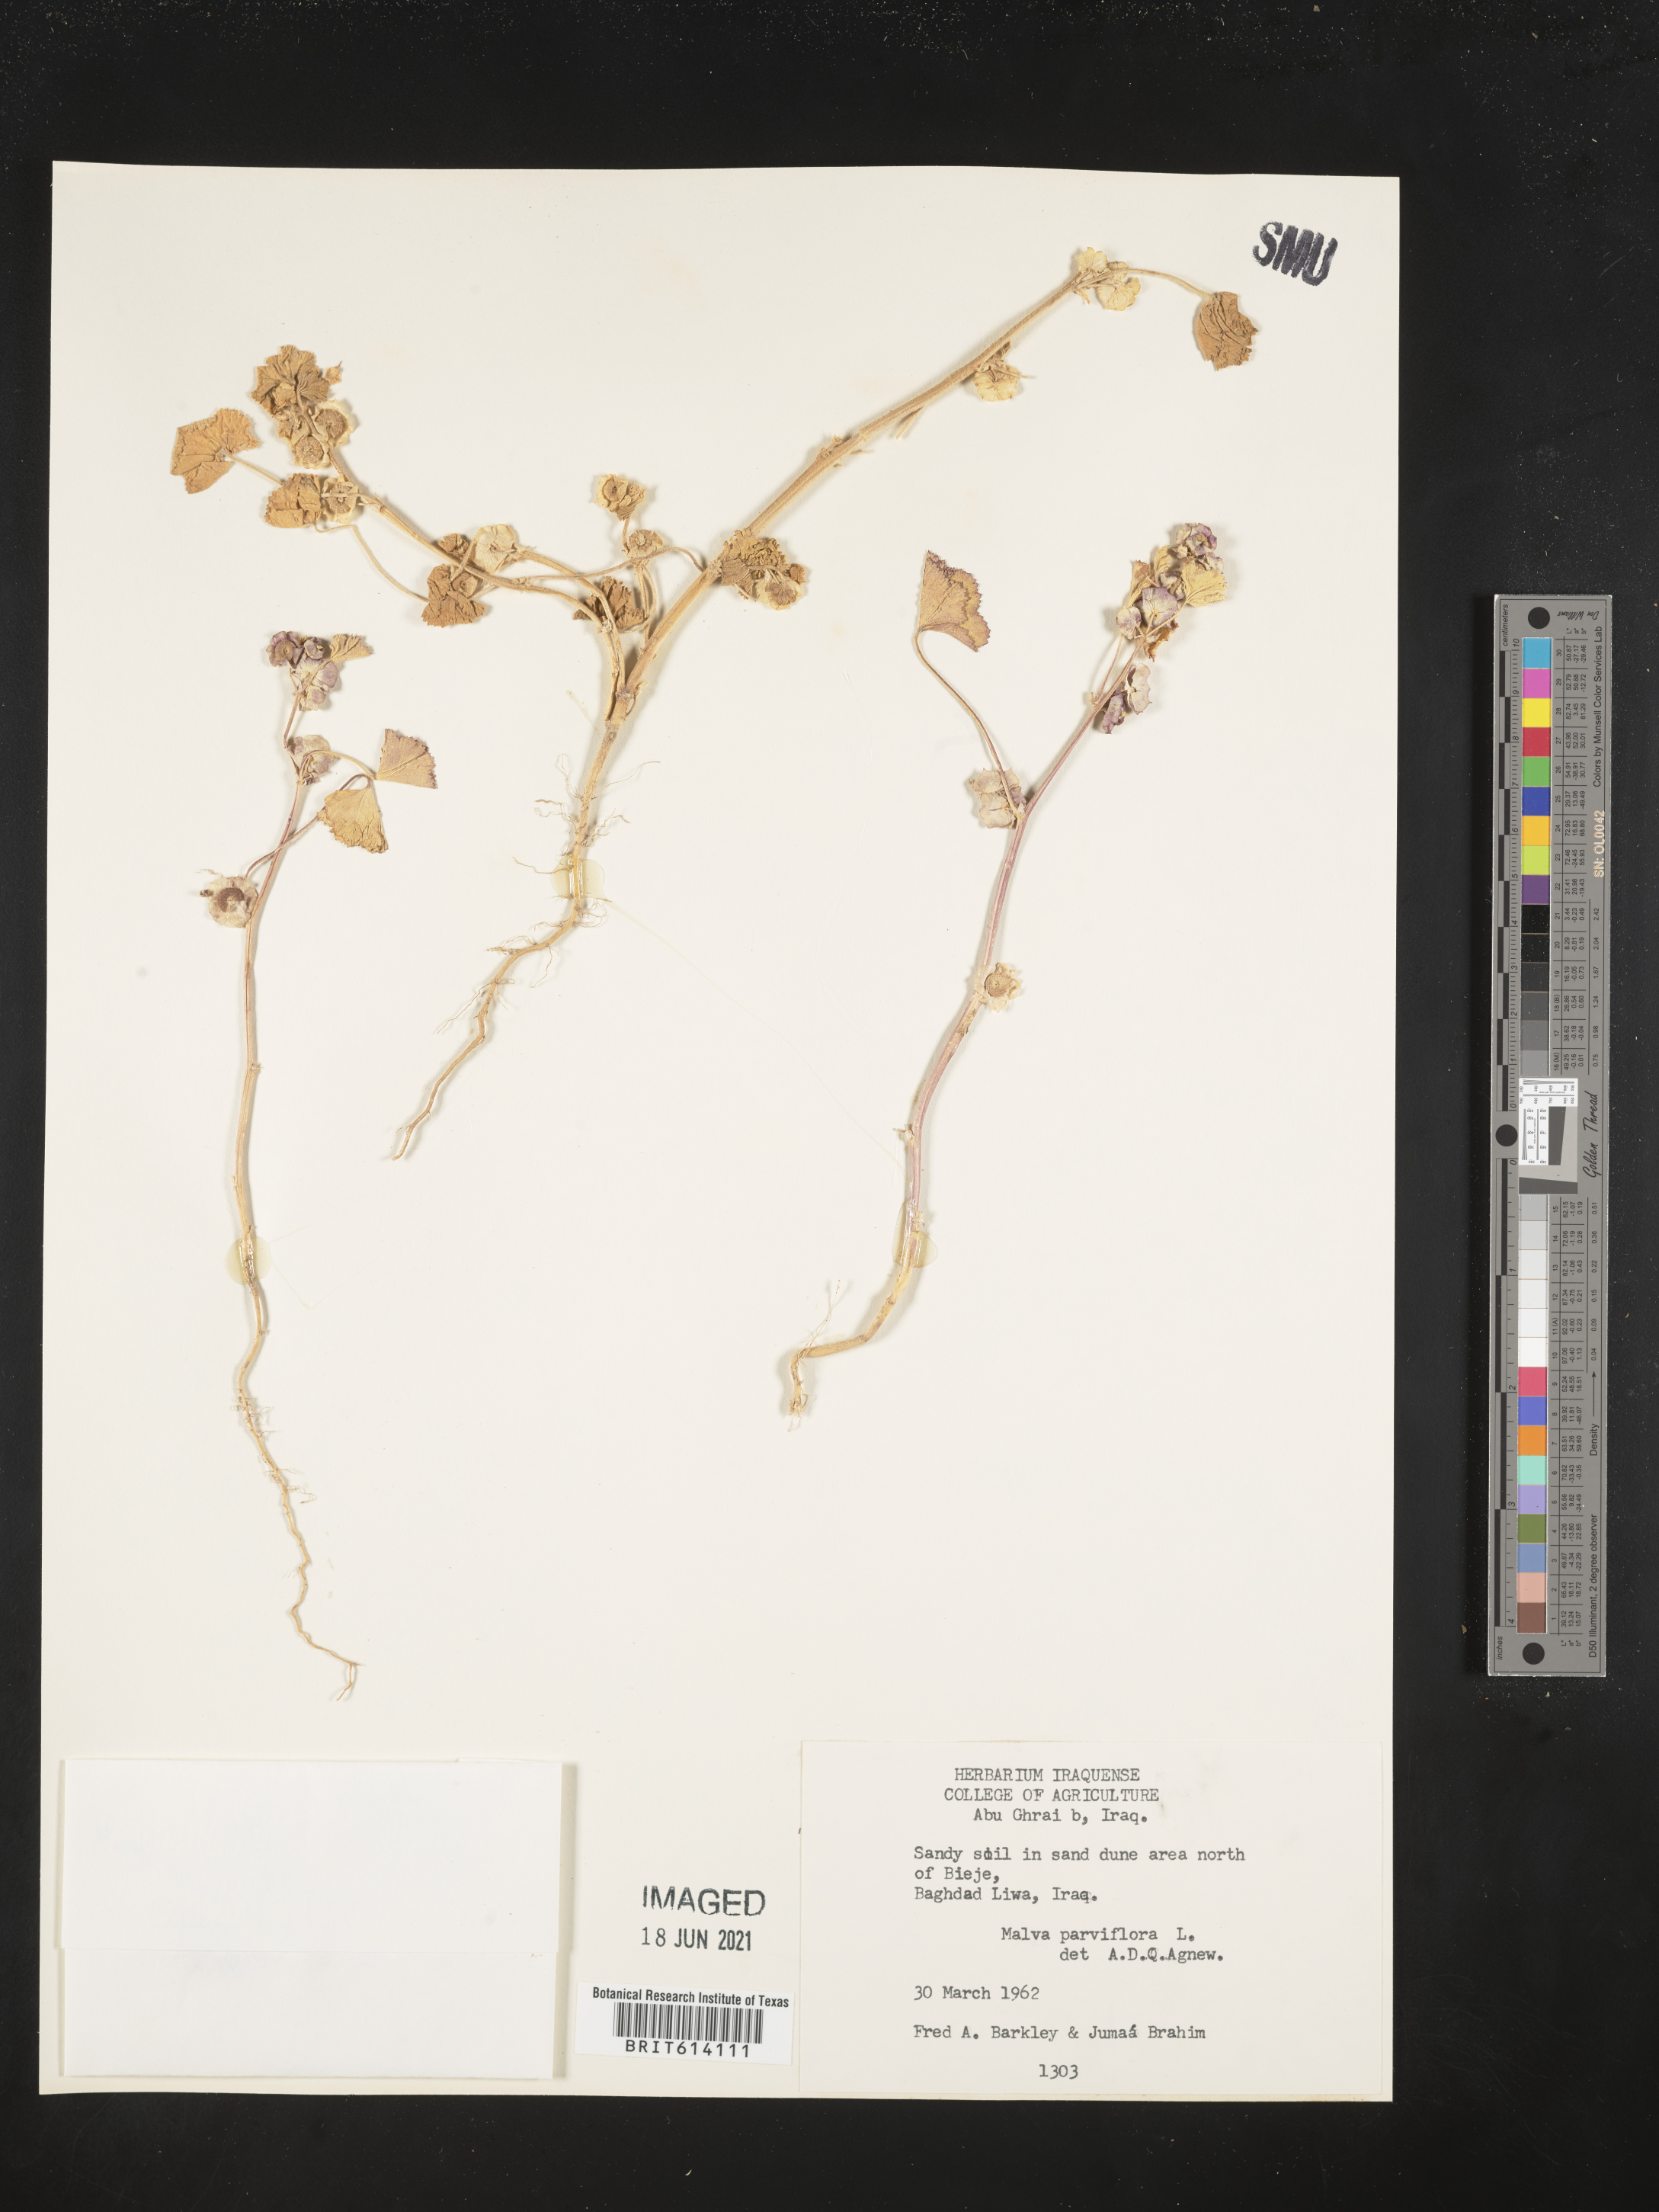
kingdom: Plantae
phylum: Tracheophyta
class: Magnoliopsida
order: Malvales
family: Malvaceae
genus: Malva
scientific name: Malva parviflora
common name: Least mallow
